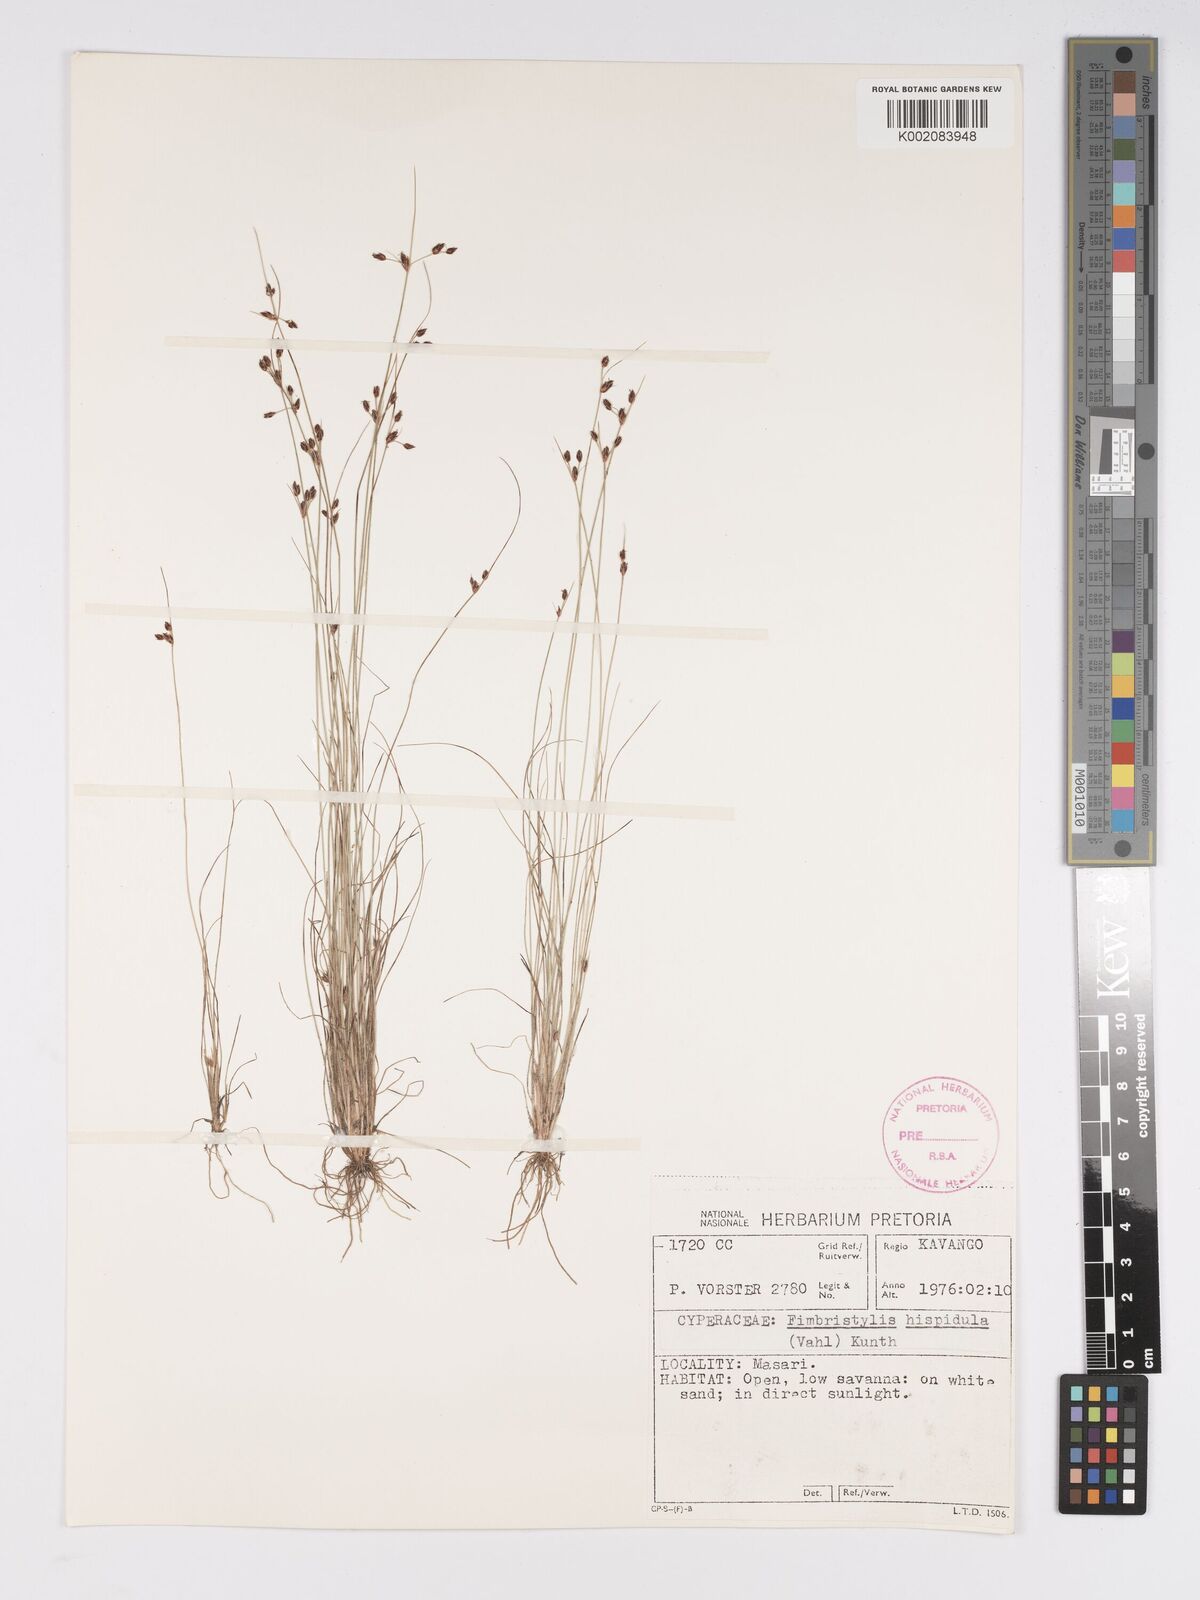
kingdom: Plantae
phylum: Tracheophyta
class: Liliopsida
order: Poales
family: Cyperaceae
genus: Bulbostylis
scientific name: Bulbostylis hispidula
